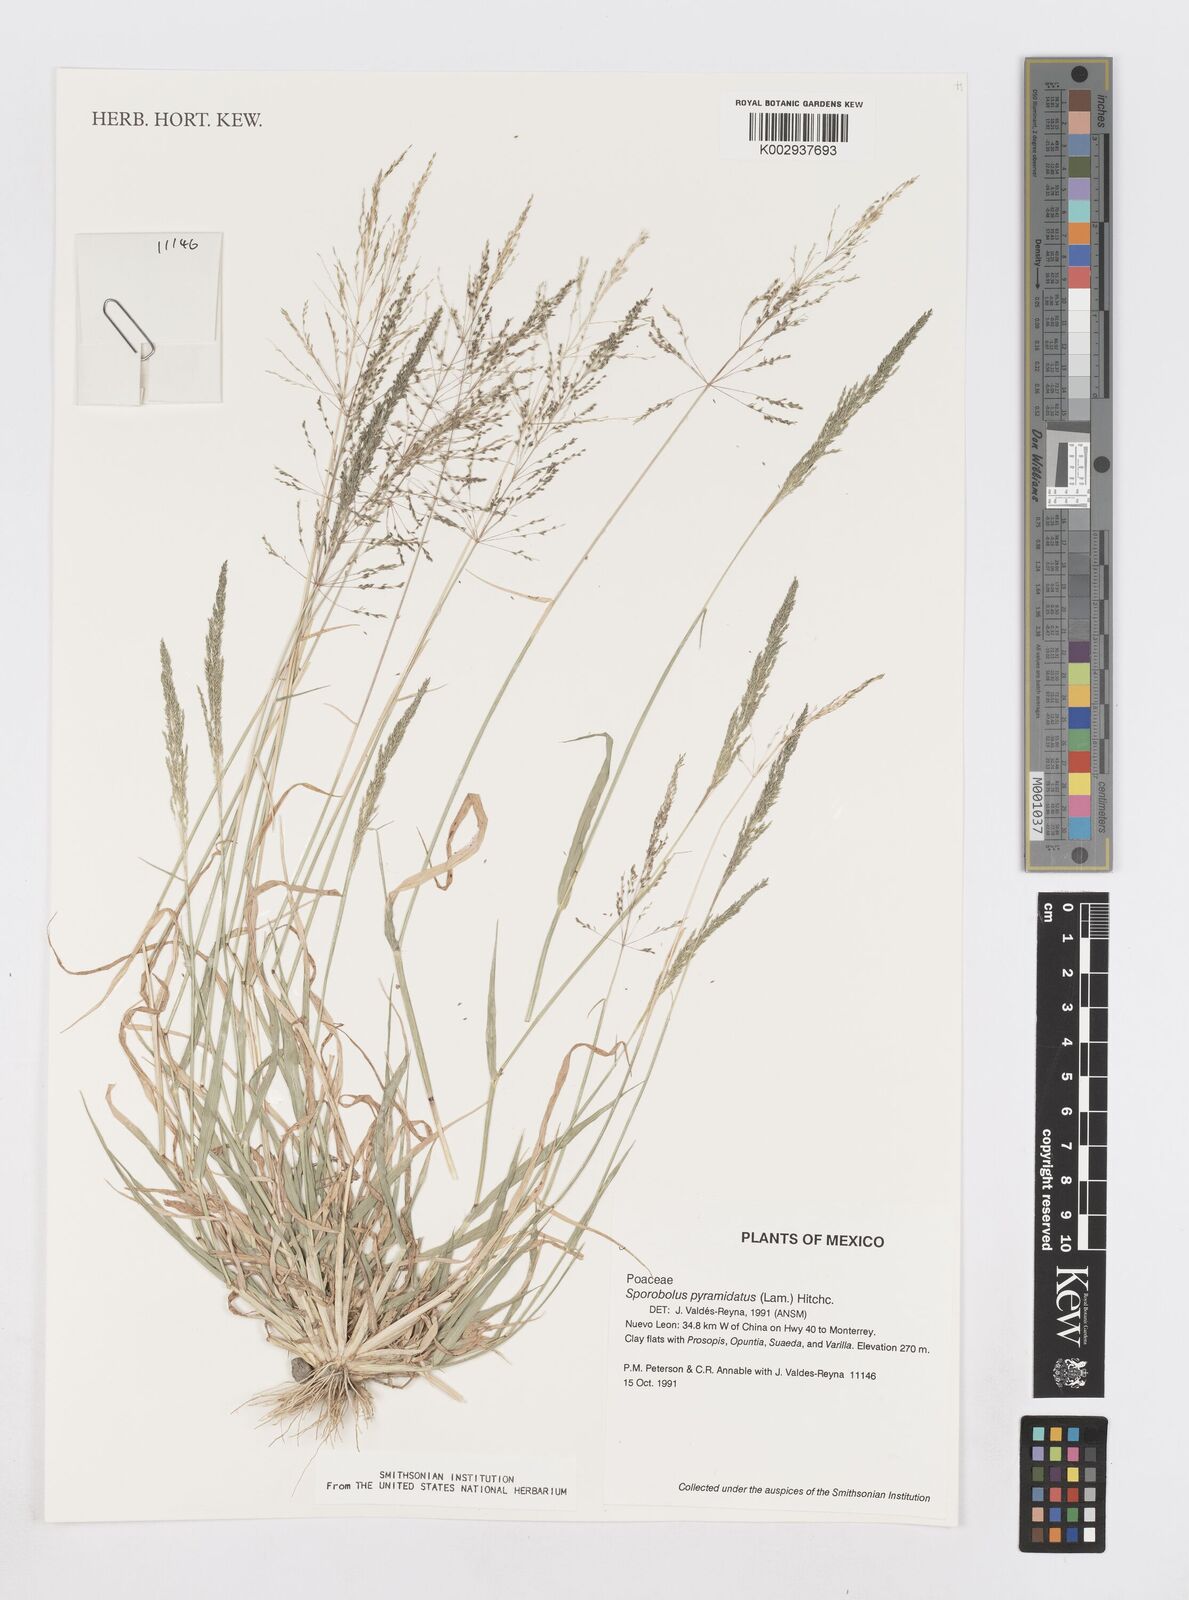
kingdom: Plantae
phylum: Tracheophyta
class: Liliopsida
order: Poales
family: Poaceae
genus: Sporobolus
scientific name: Sporobolus pyramidatus
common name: Whorled dropseed
